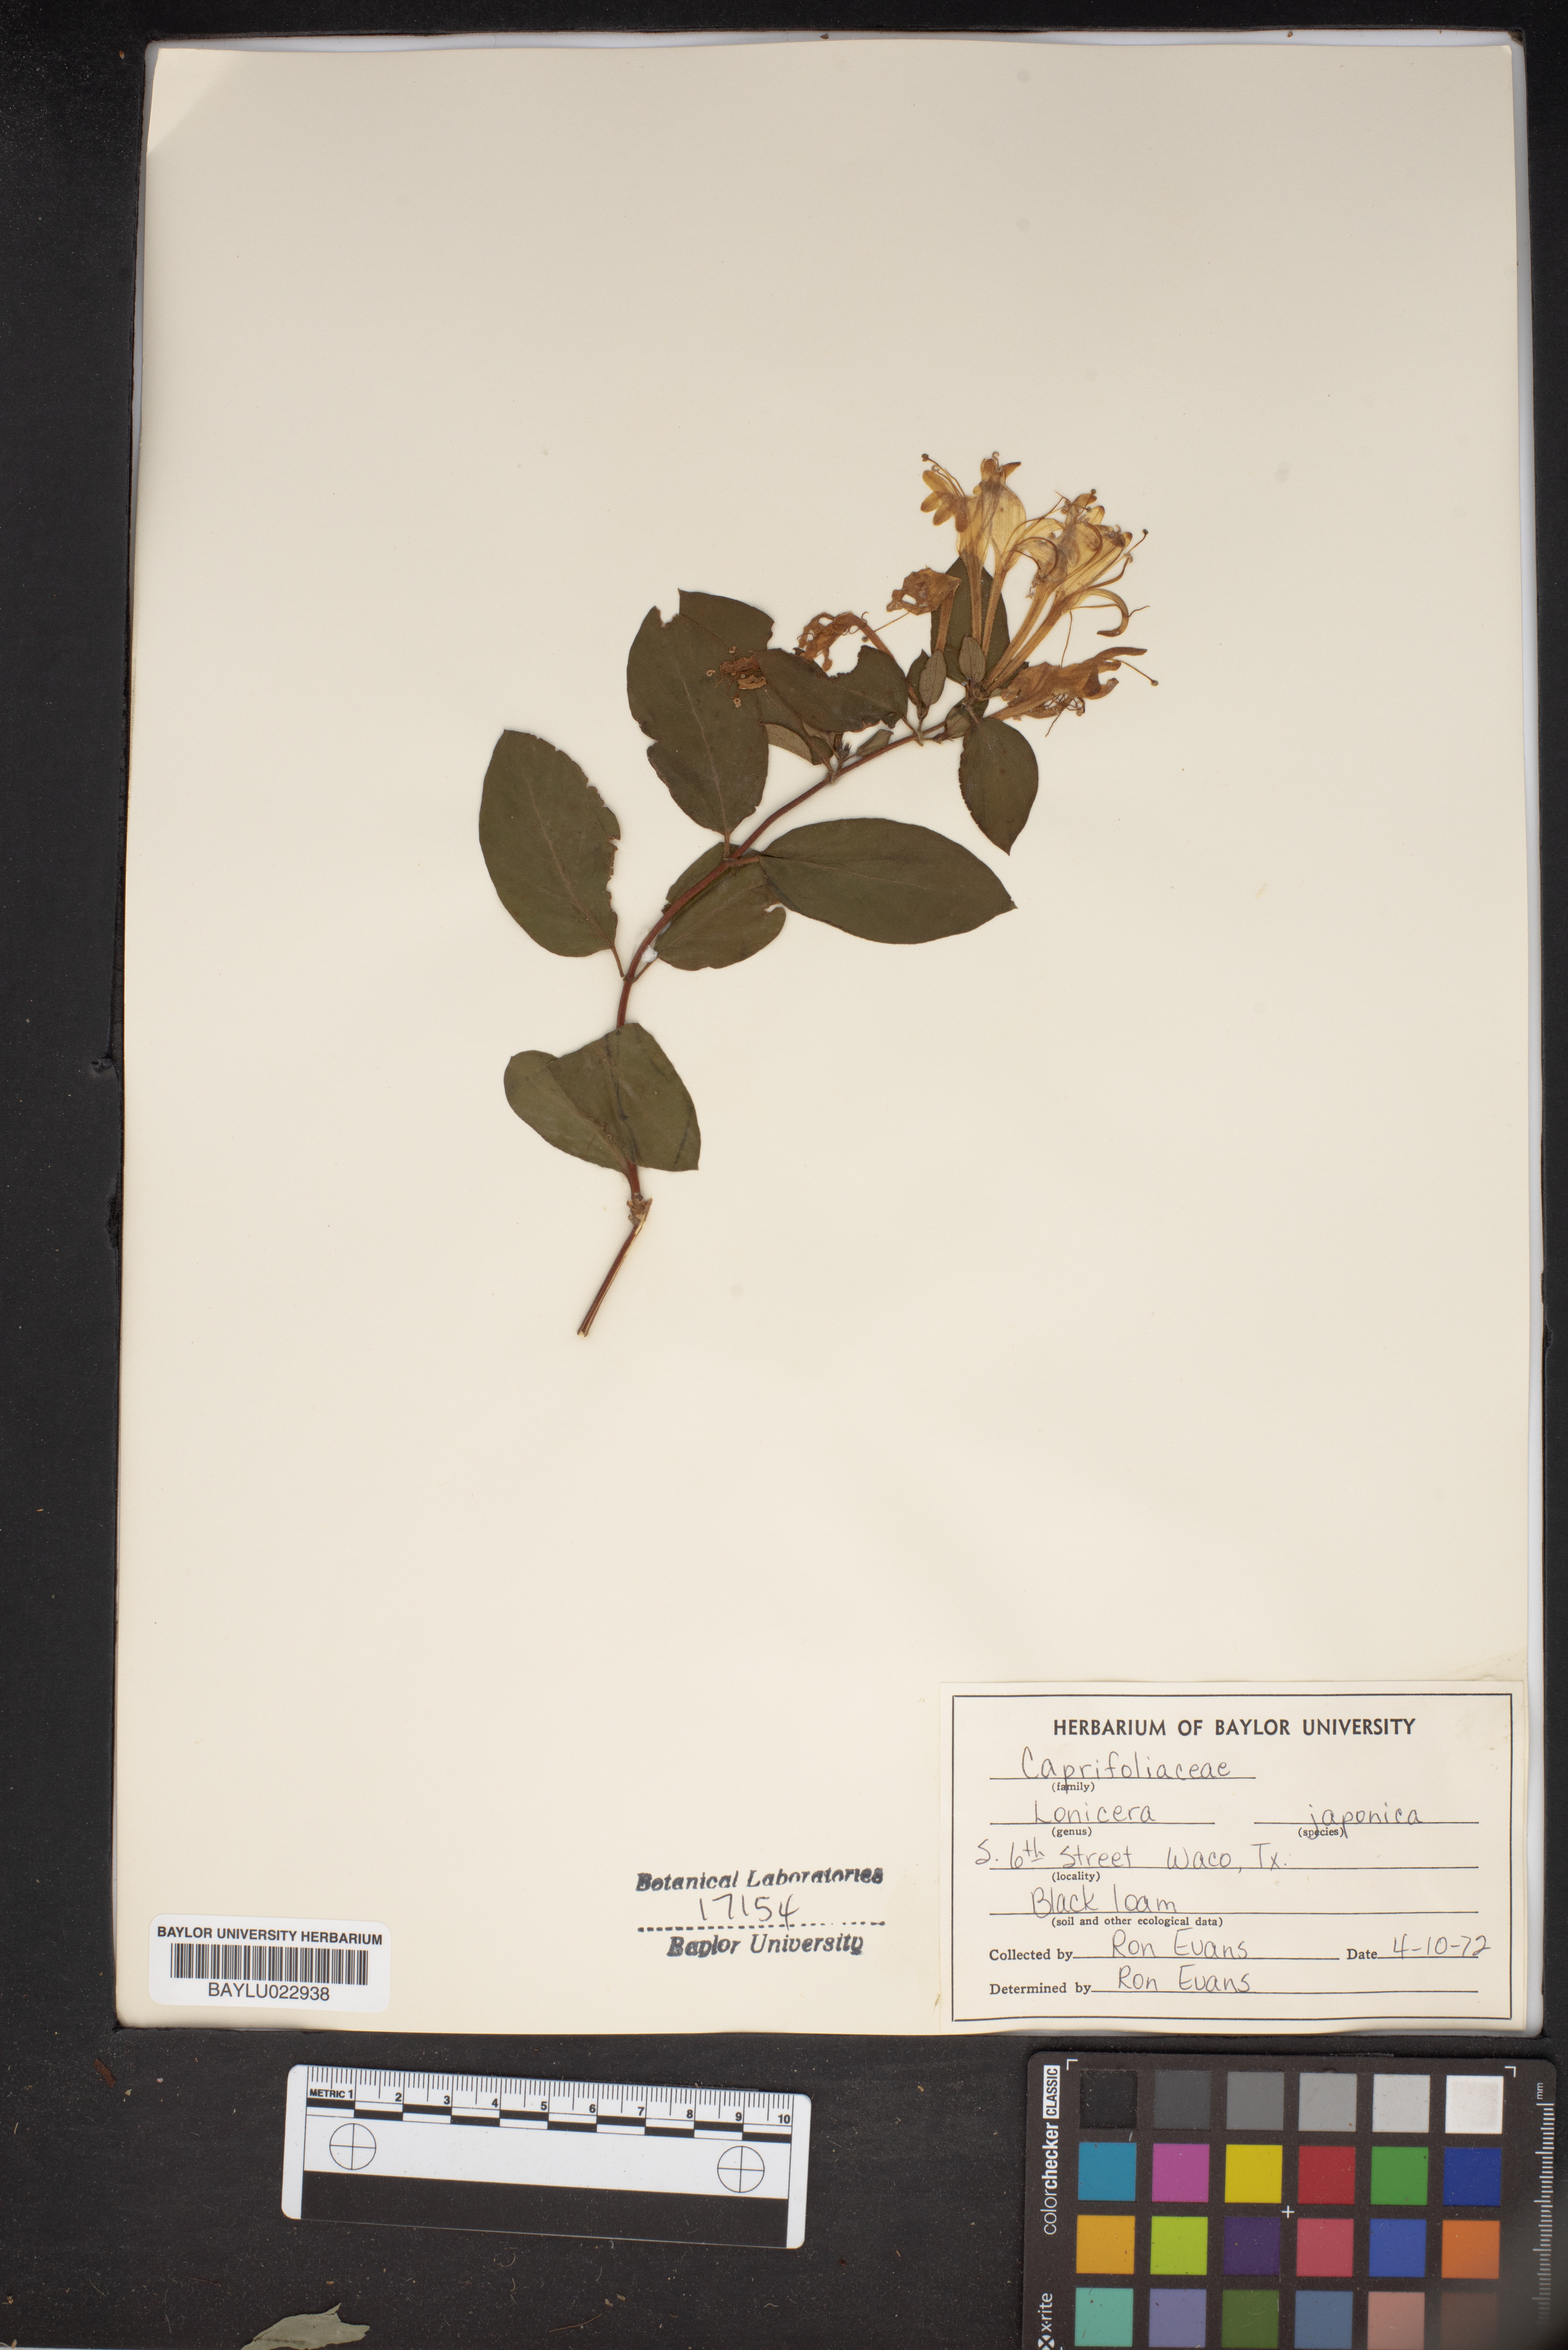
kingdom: Plantae
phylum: Tracheophyta
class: Magnoliopsida
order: Dipsacales
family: Caprifoliaceae
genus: Lonicera
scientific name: Lonicera japonica
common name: Japanese honeysuckle
